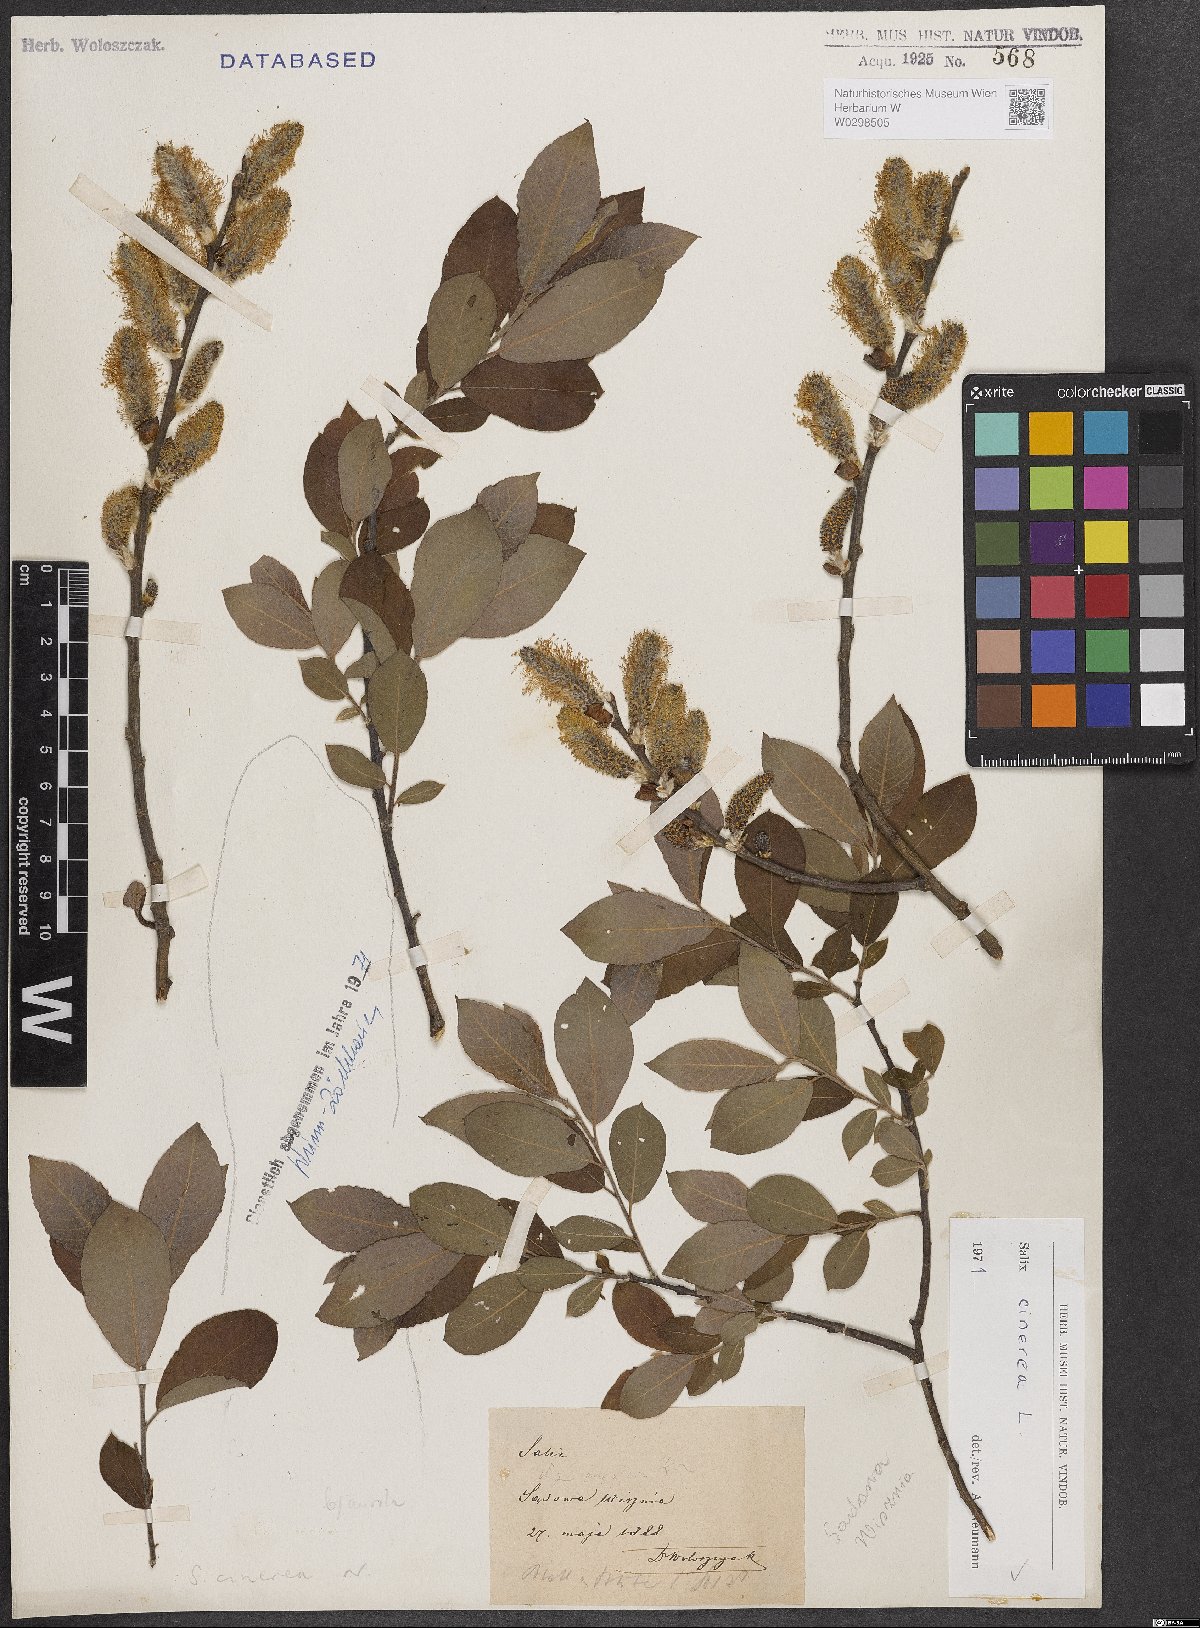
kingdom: Plantae
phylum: Tracheophyta
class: Magnoliopsida
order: Malpighiales
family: Salicaceae
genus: Salix
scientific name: Salix cinerea
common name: Common sallow
